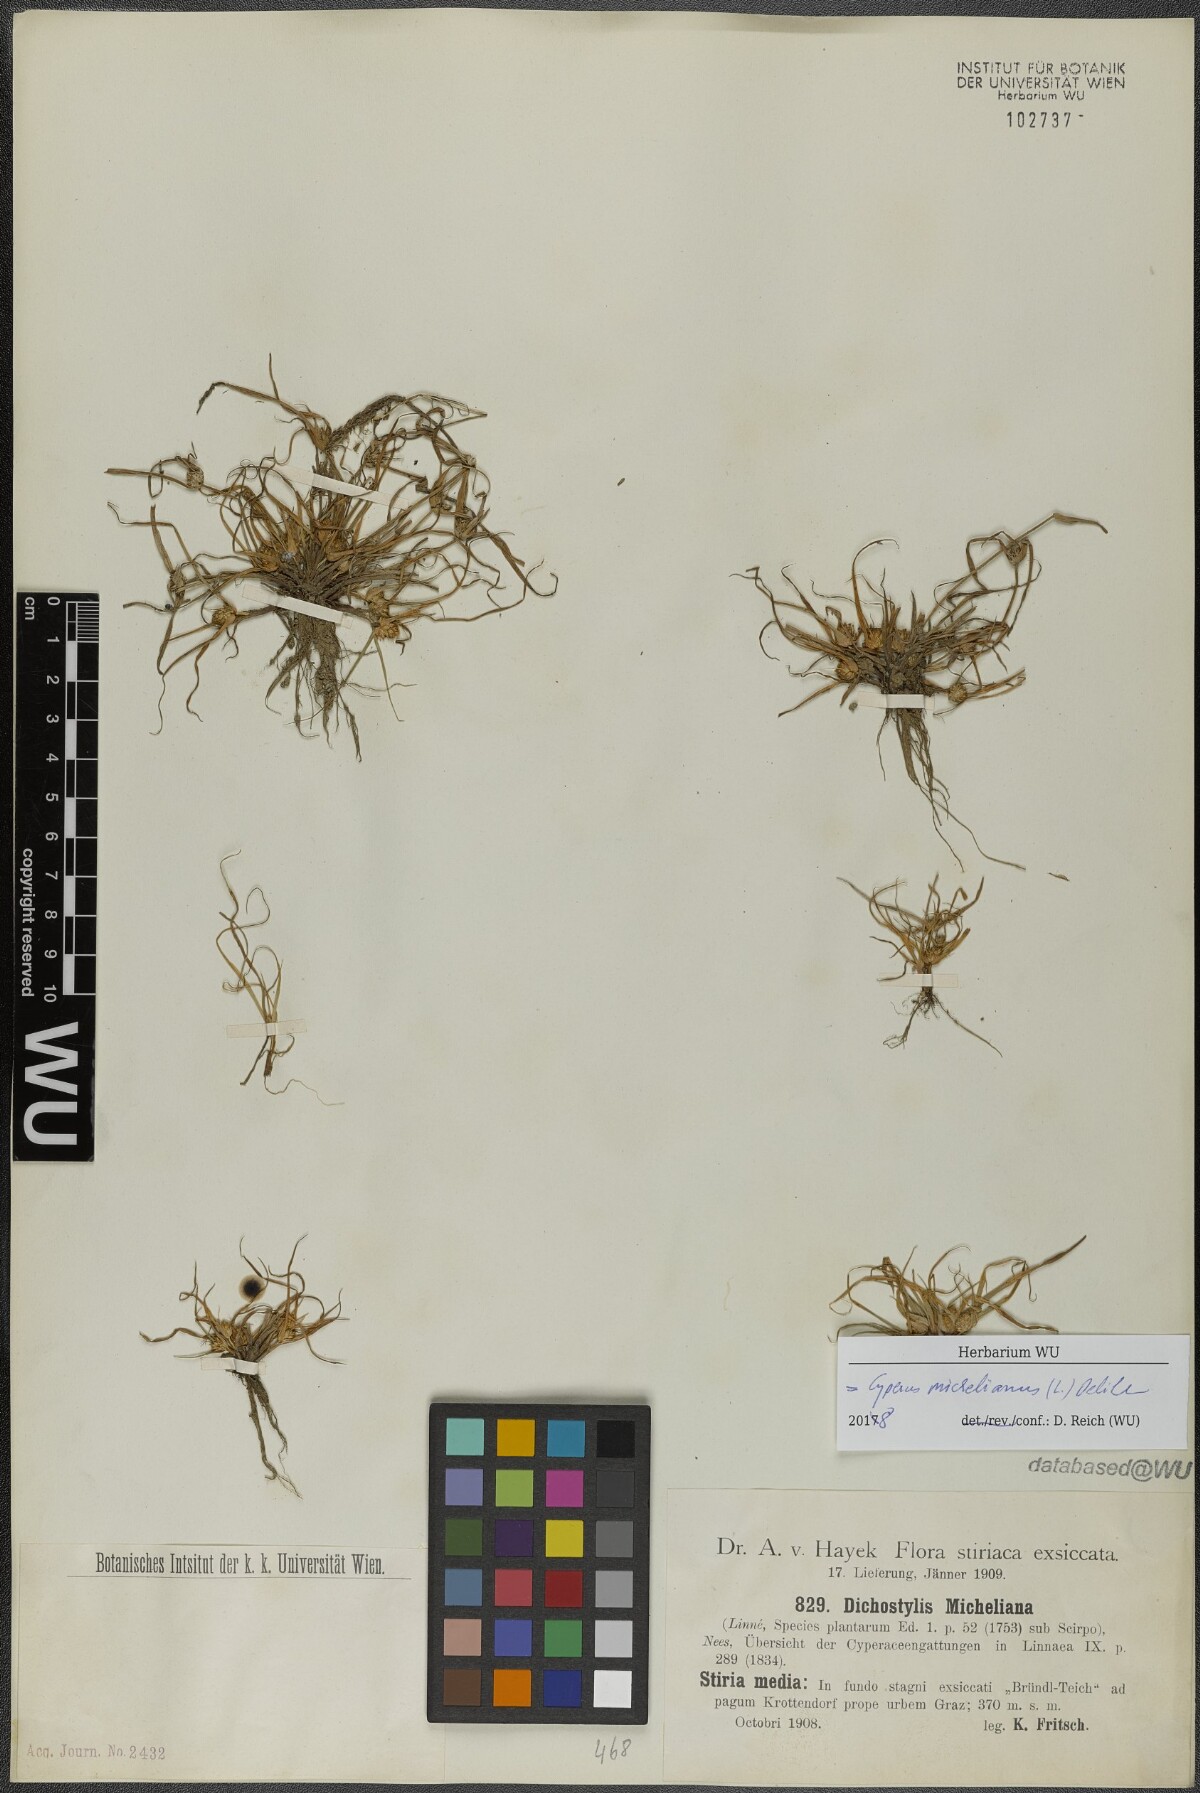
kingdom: Plantae
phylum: Tracheophyta
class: Liliopsida
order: Poales
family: Cyperaceae
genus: Cyperus
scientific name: Cyperus michelianus
